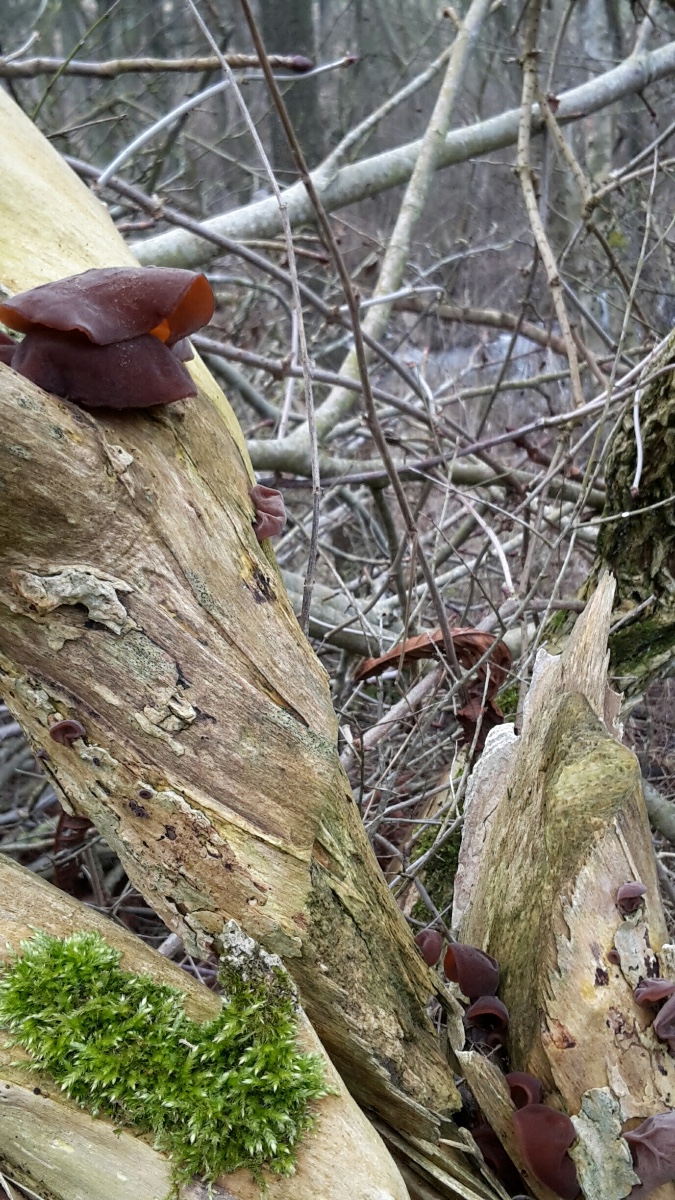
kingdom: Fungi
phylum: Basidiomycota
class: Agaricomycetes
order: Auriculariales
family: Auriculariaceae
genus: Auricularia
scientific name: Auricularia auricula-judae
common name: almindelig judasøre
